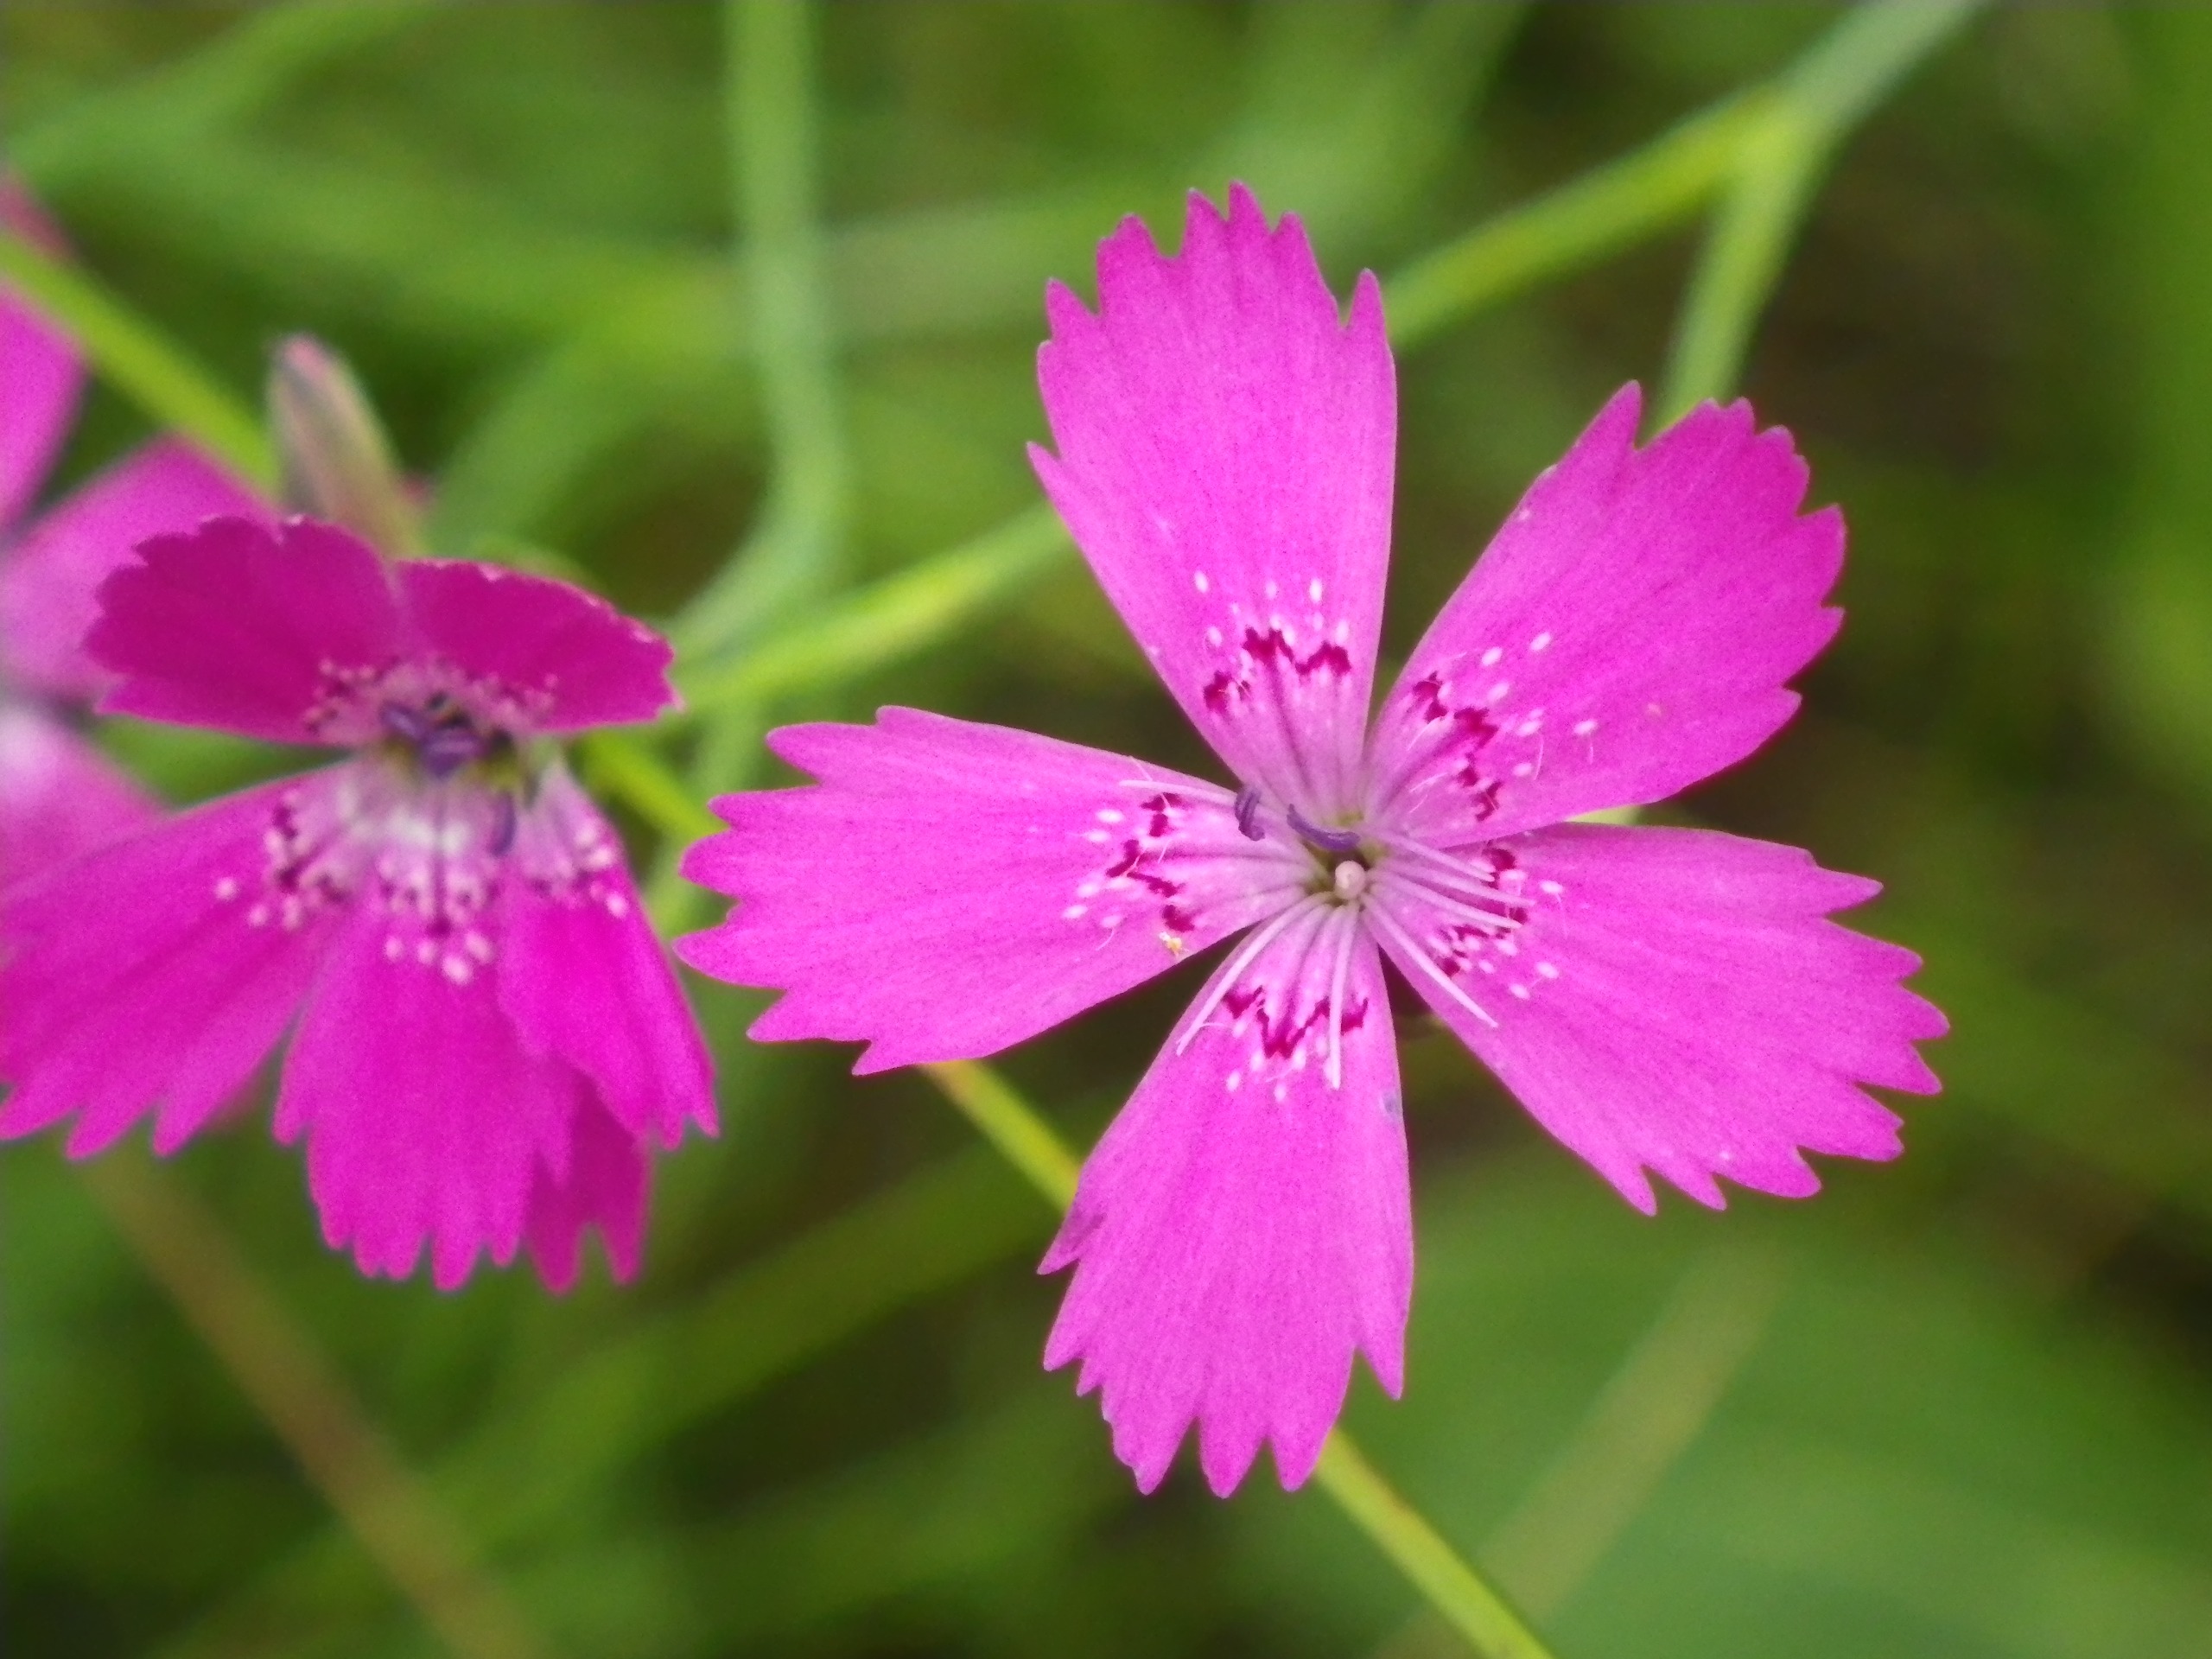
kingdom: Plantae
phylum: Tracheophyta
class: Magnoliopsida
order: Caryophyllales
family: Caryophyllaceae
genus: Dianthus
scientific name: Dianthus deltoides
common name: Bakke-nellike
